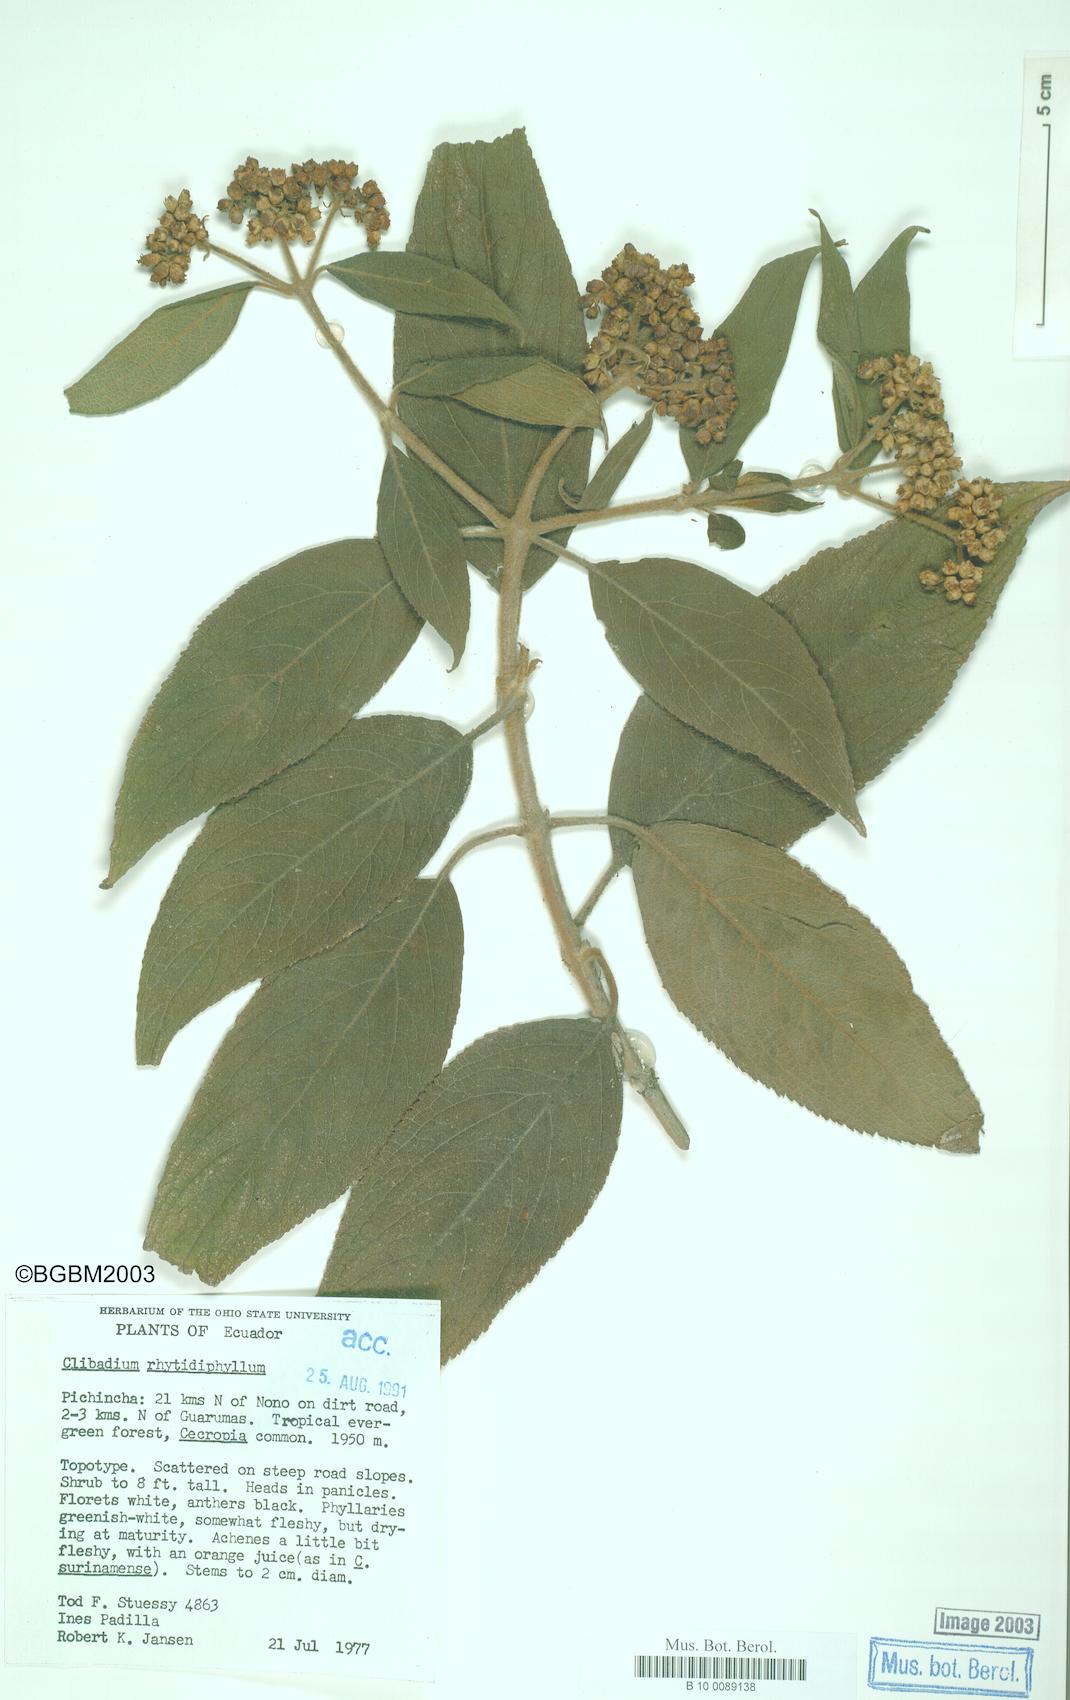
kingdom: Plantae
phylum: Tracheophyta
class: Magnoliopsida
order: Asterales
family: Asteraceae
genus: Clibadium
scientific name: Clibadium rhytidophyllum
